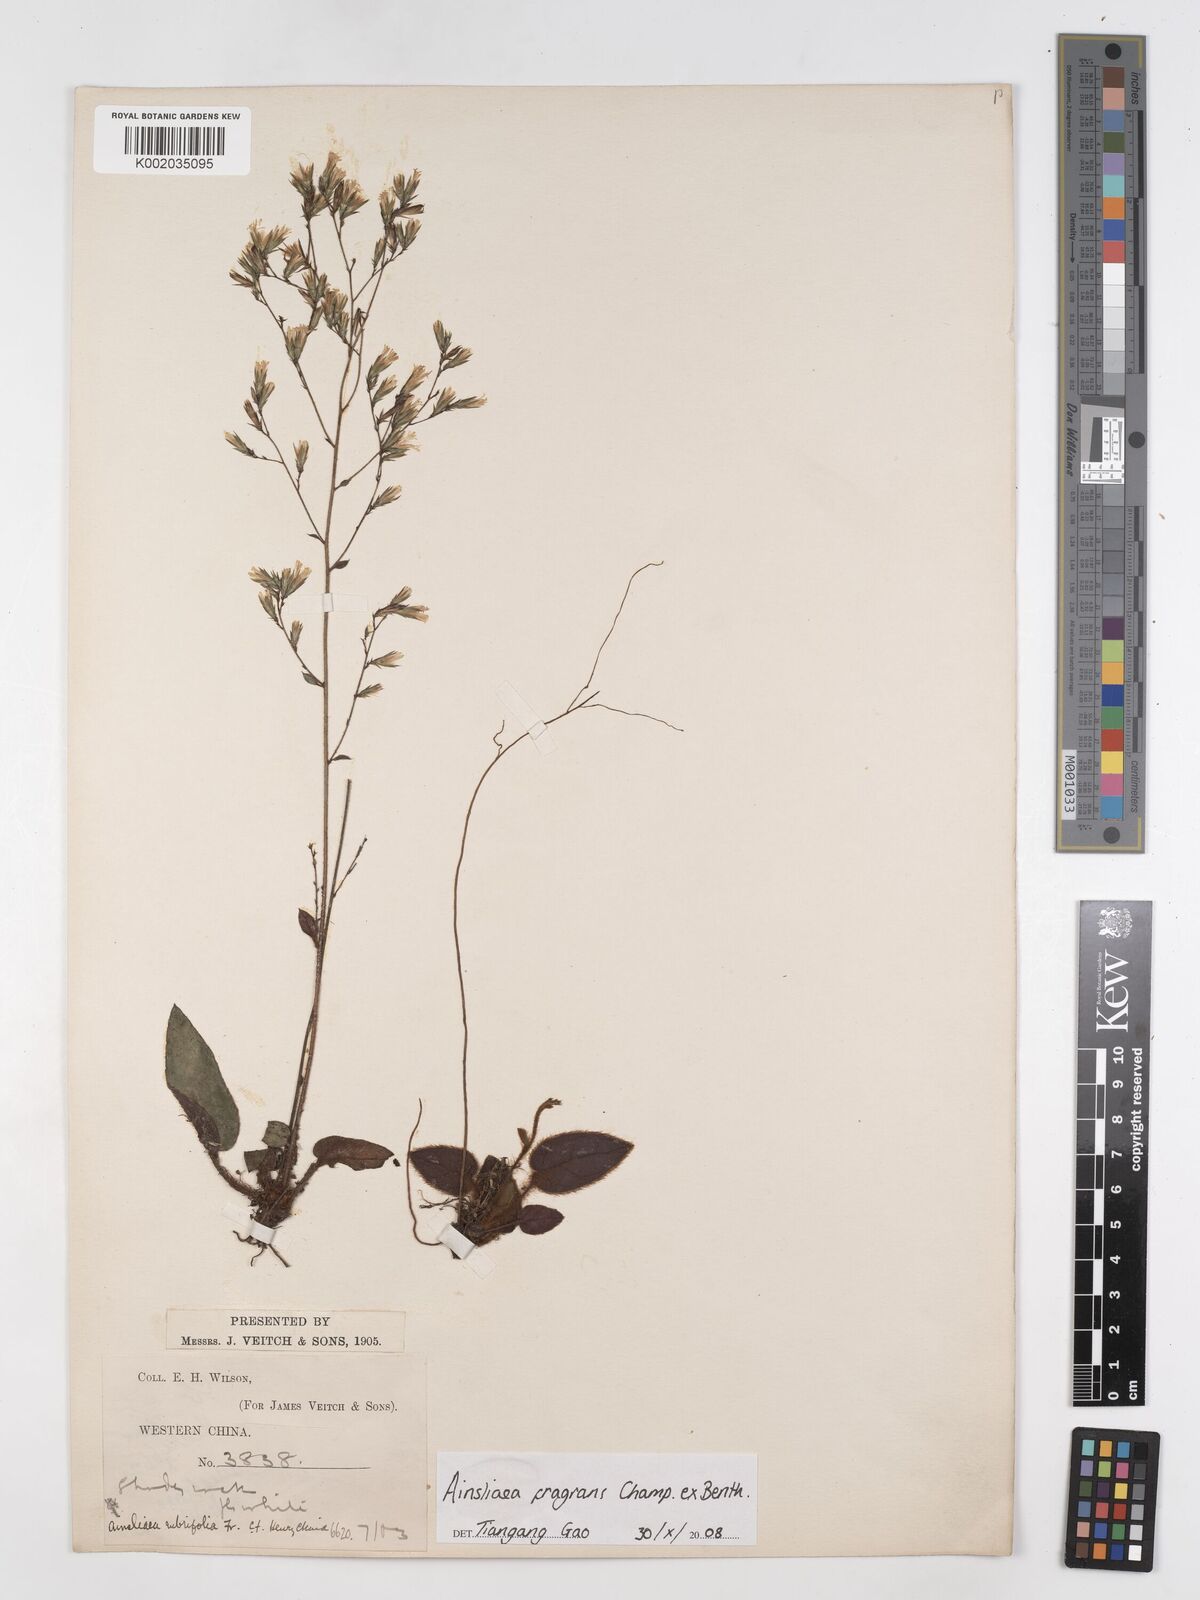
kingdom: Plantae
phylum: Tracheophyta
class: Magnoliopsida
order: Asterales
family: Asteraceae
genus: Ainsliaea
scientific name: Ainsliaea fragrans
